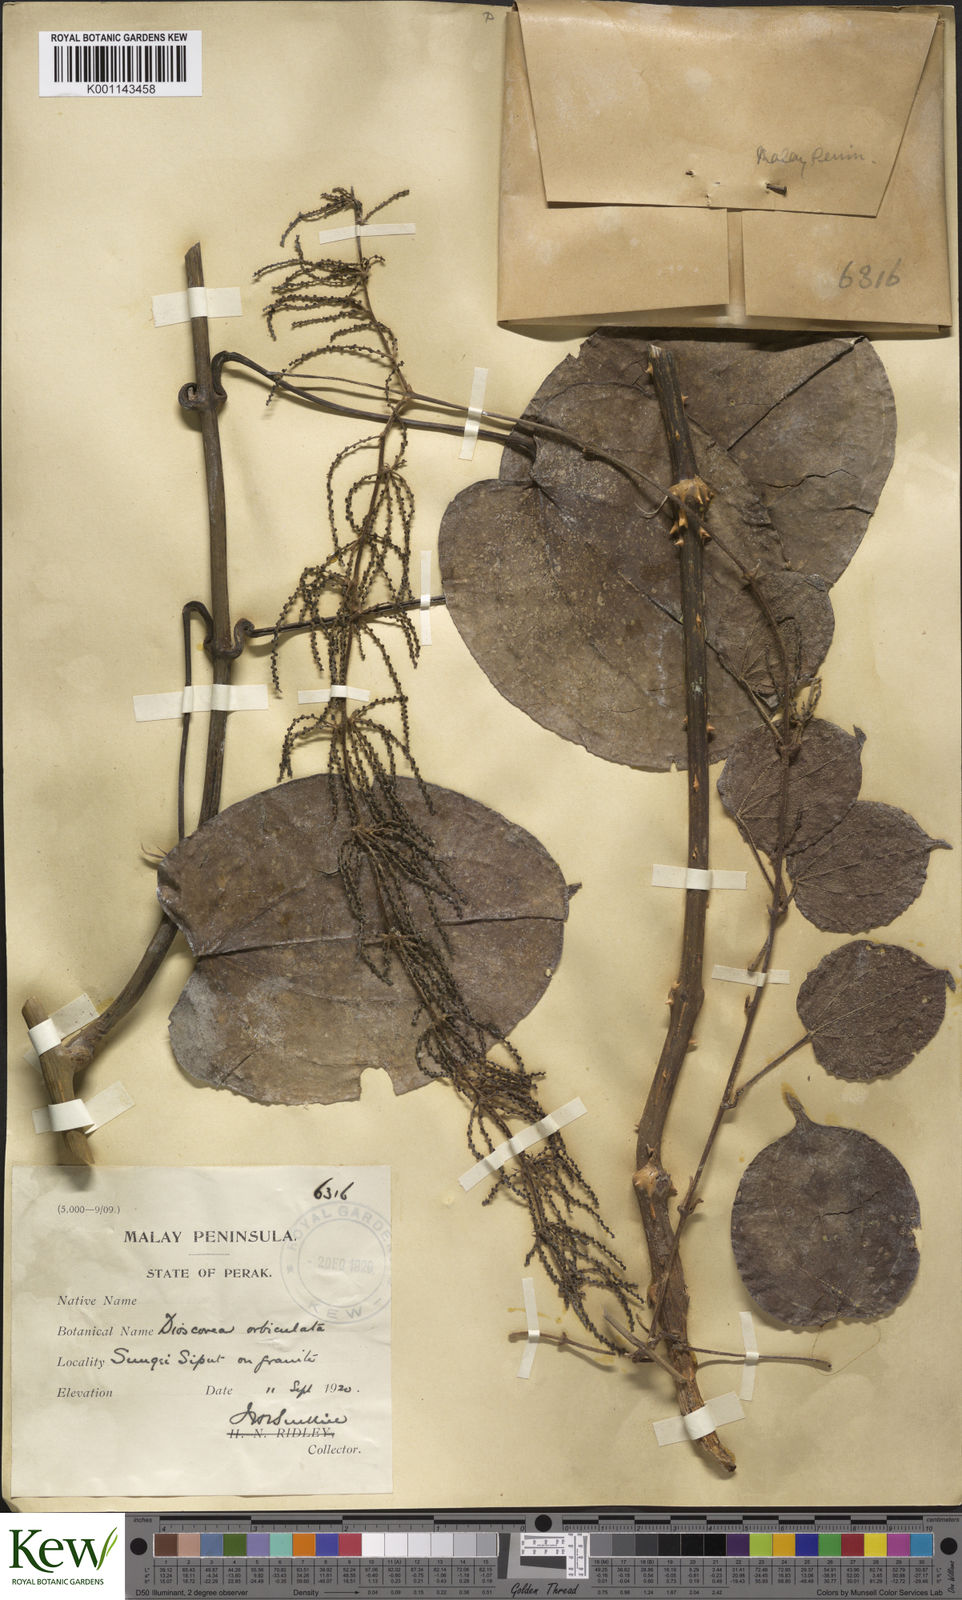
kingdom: Plantae
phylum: Tracheophyta
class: Liliopsida
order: Dioscoreales
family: Dioscoreaceae
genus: Dioscorea
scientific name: Dioscorea orbiculata
